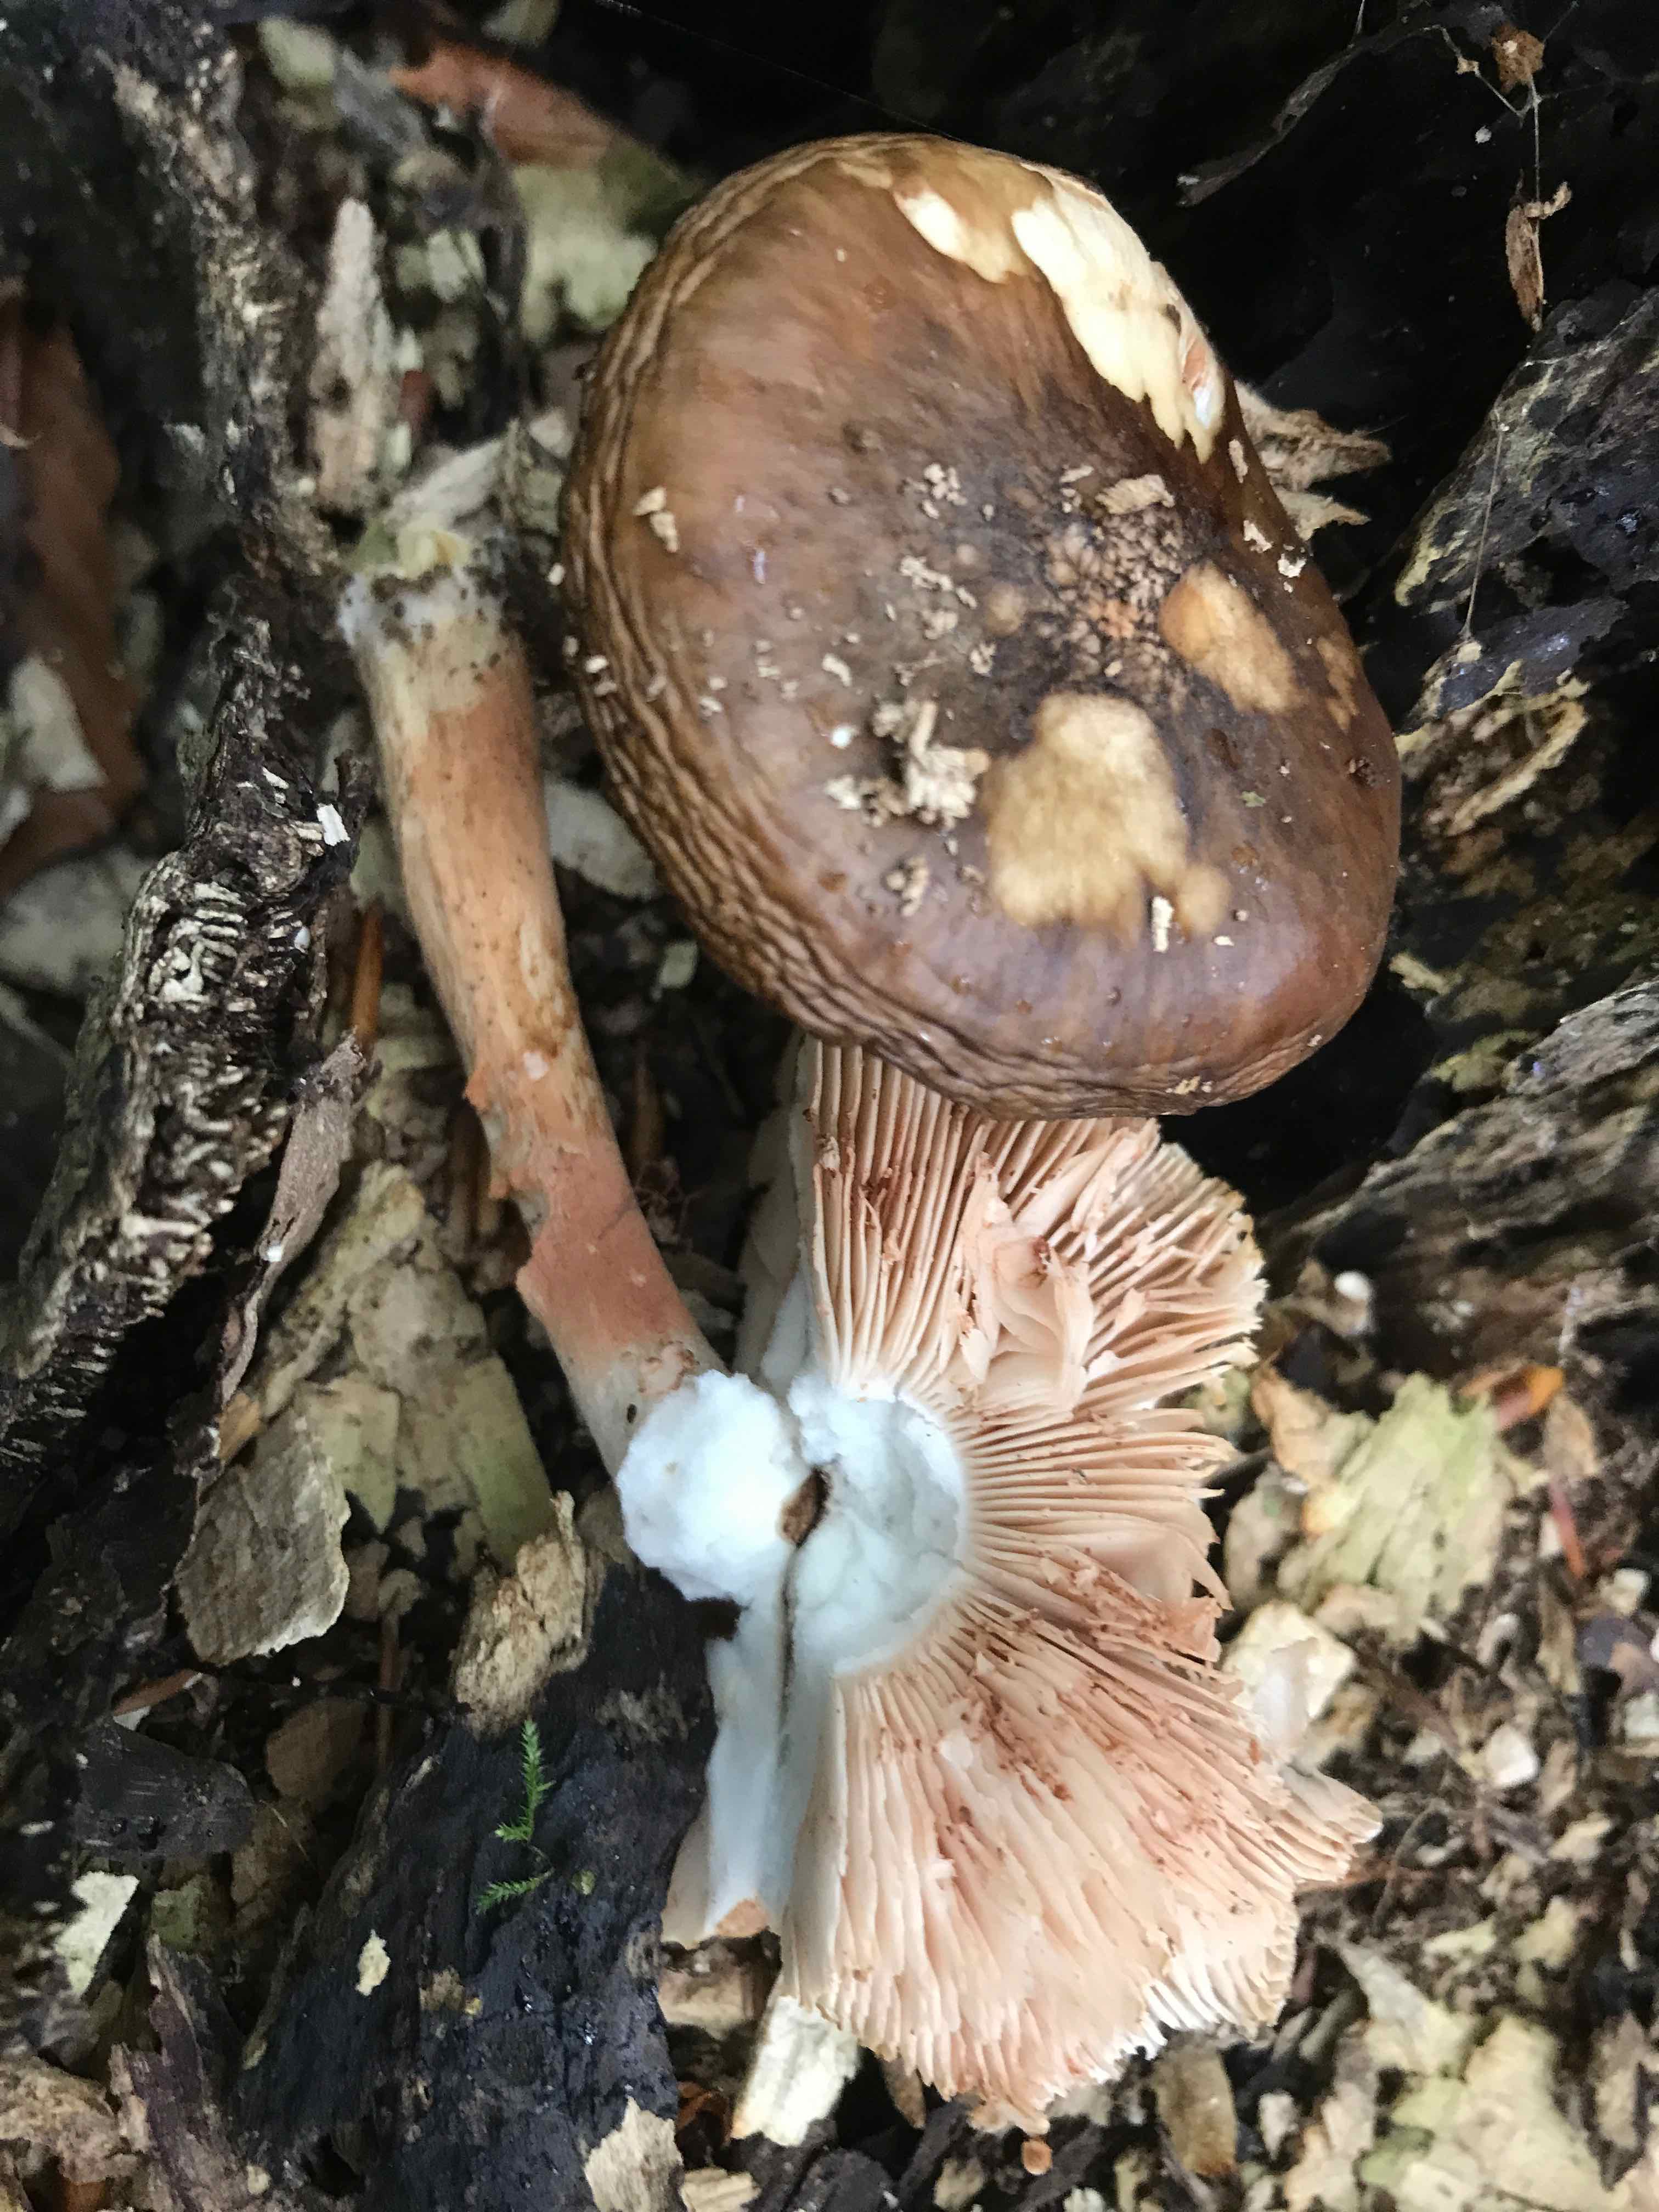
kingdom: Fungi
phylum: Basidiomycota
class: Agaricomycetes
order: Agaricales
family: Pluteaceae
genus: Pluteus
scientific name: Pluteus cervinus
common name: sodfarvet skærmhat
